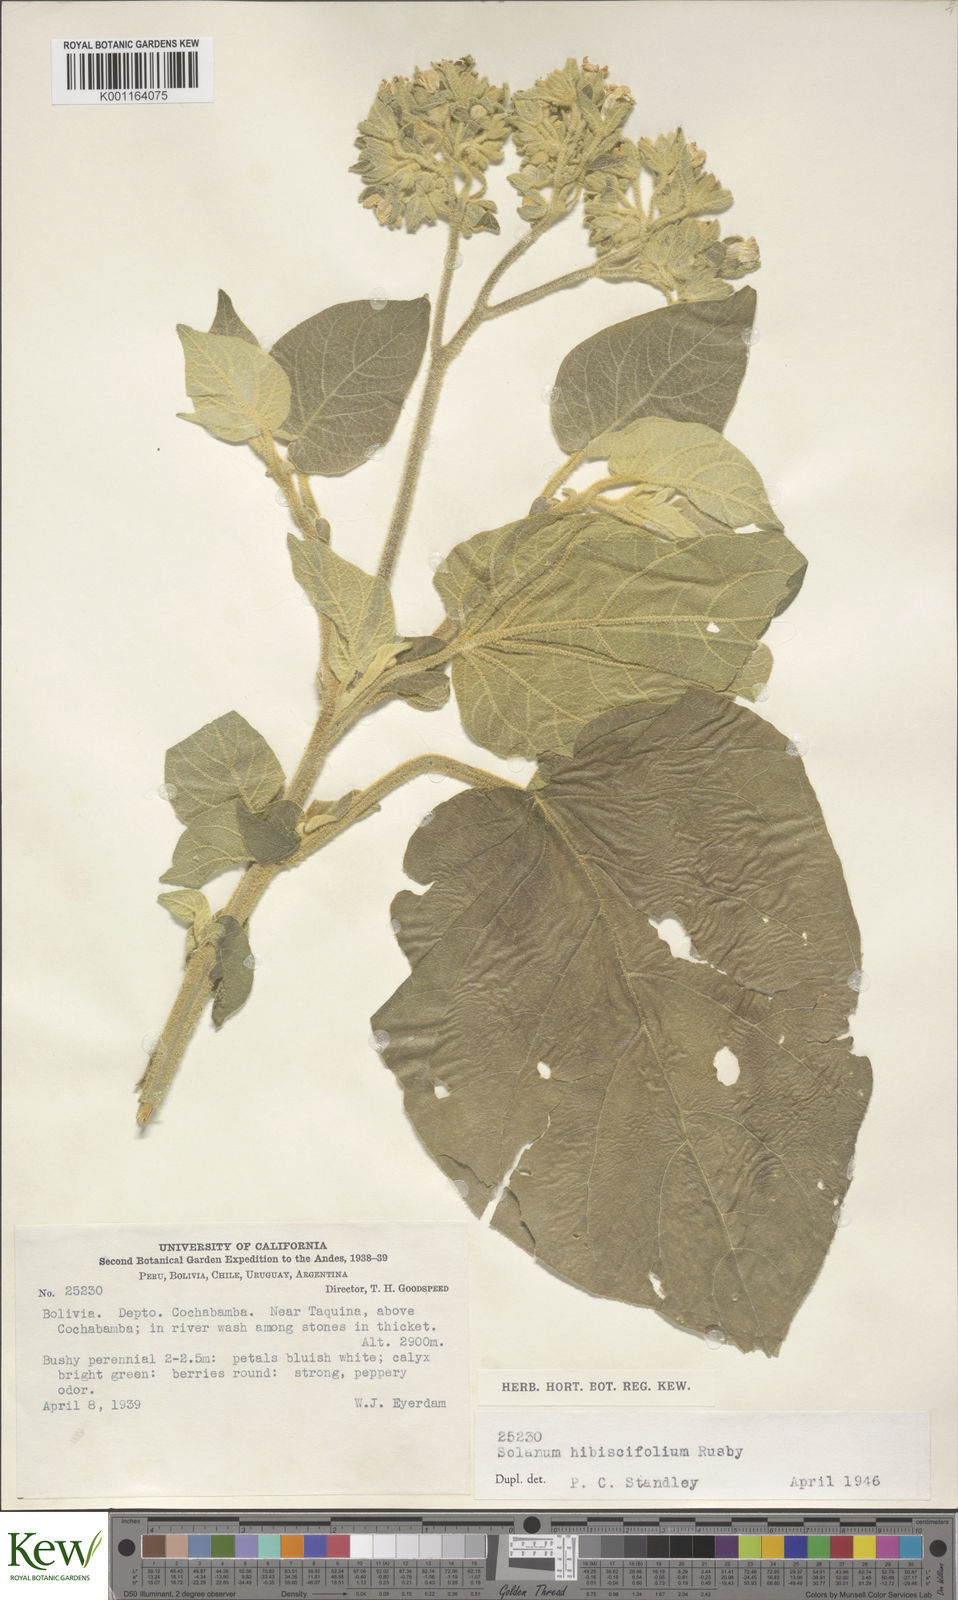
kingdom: Plantae
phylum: Tracheophyta
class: Magnoliopsida
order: Solanales
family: Solanaceae
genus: Solanum
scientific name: Solanum abutiloides
